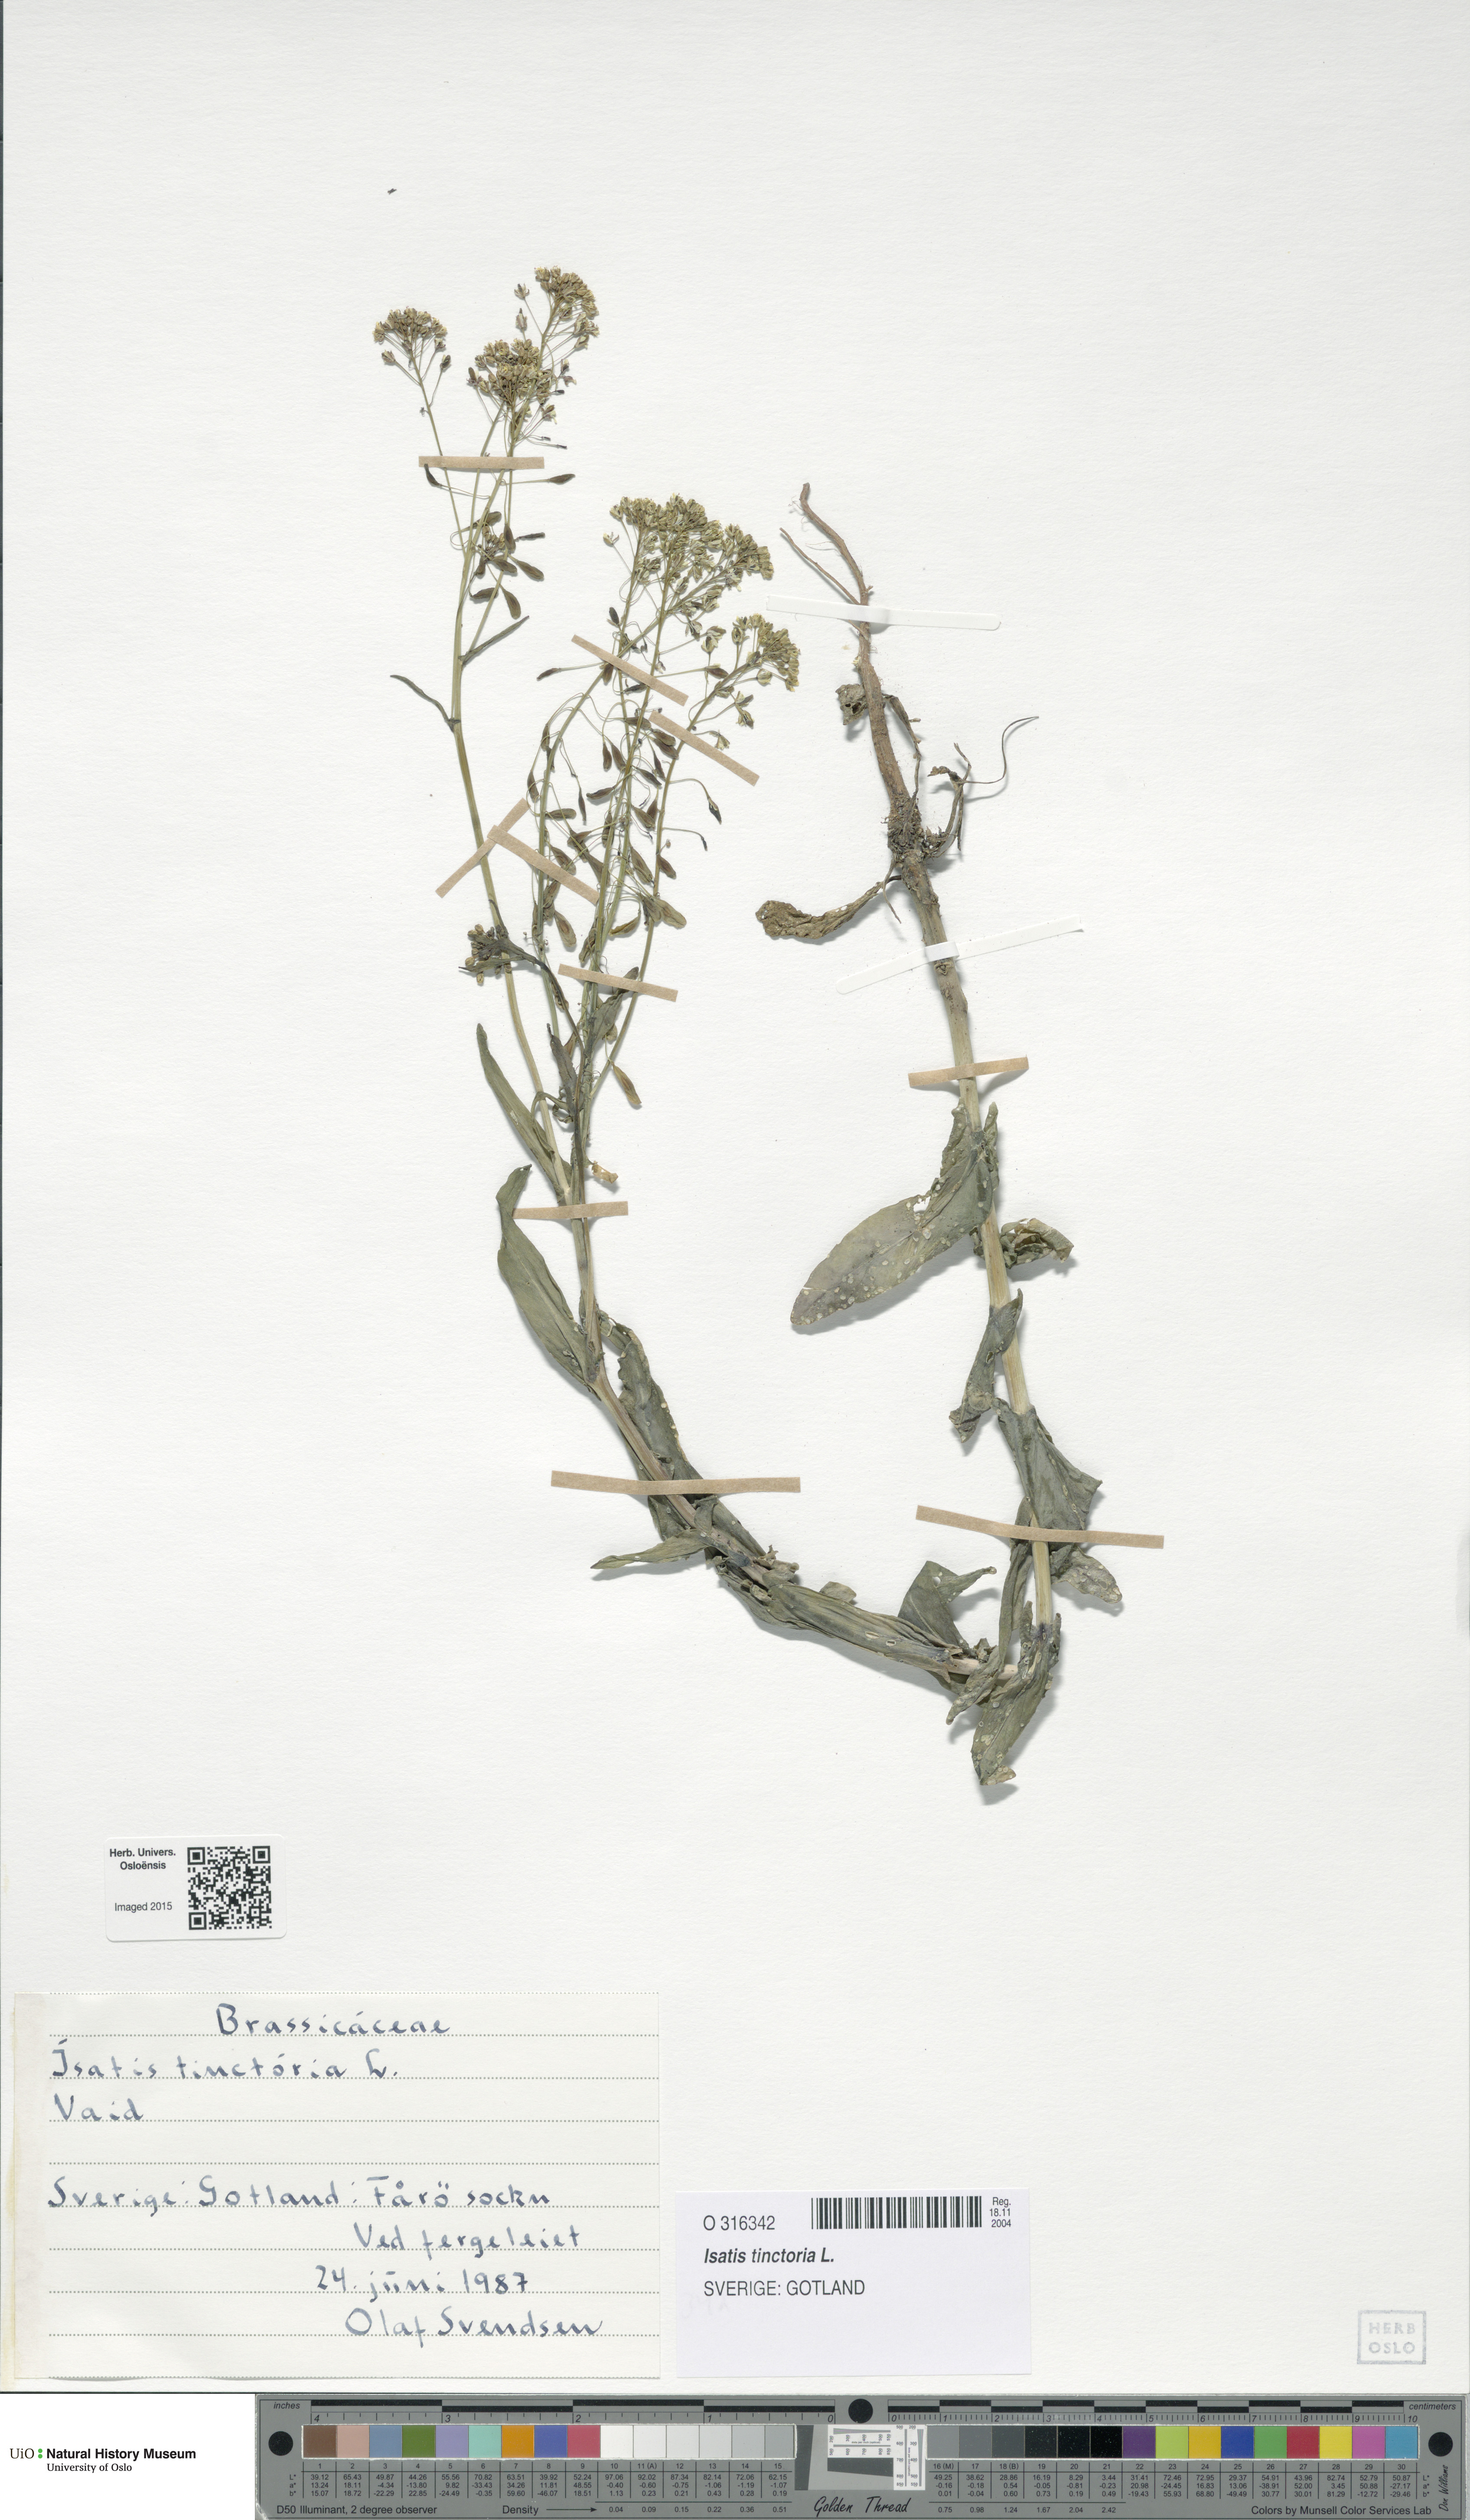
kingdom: Plantae
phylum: Tracheophyta
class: Magnoliopsida
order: Brassicales
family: Brassicaceae
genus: Isatis
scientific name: Isatis tinctoria
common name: Woad
